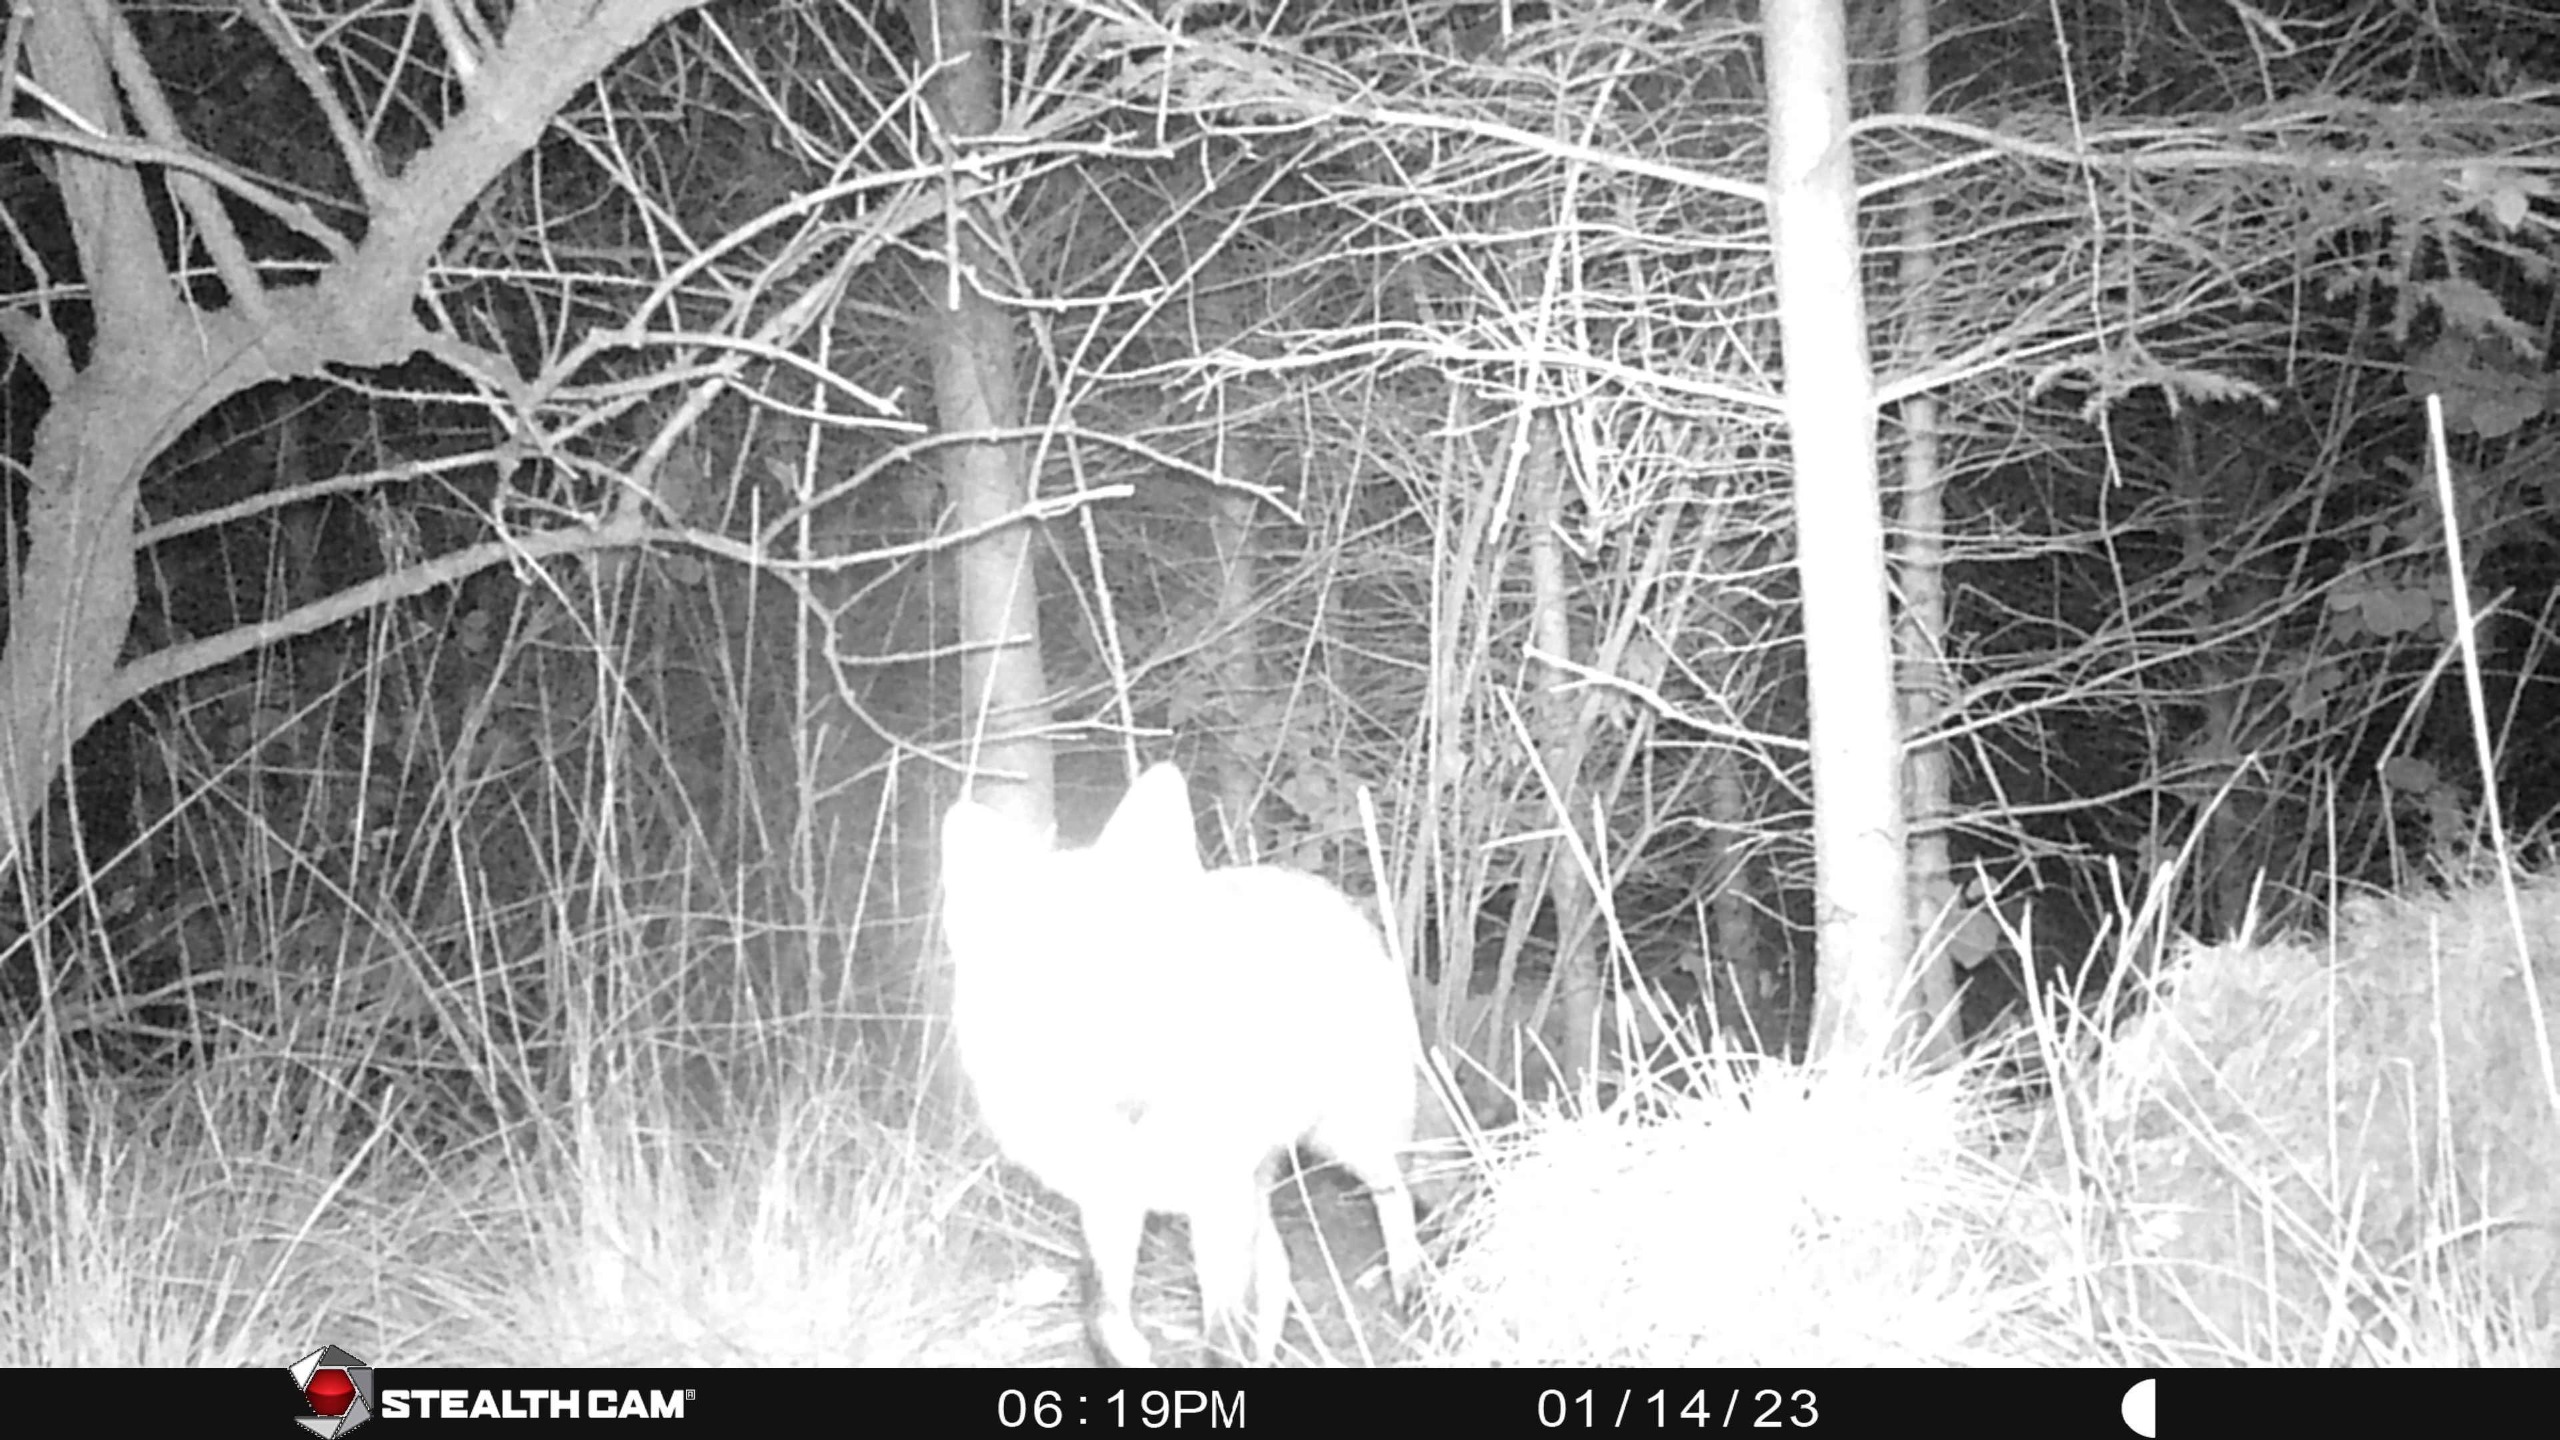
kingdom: Animalia
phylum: Chordata
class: Mammalia
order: Carnivora
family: Canidae
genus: Vulpes
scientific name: Vulpes vulpes
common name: Ræv
